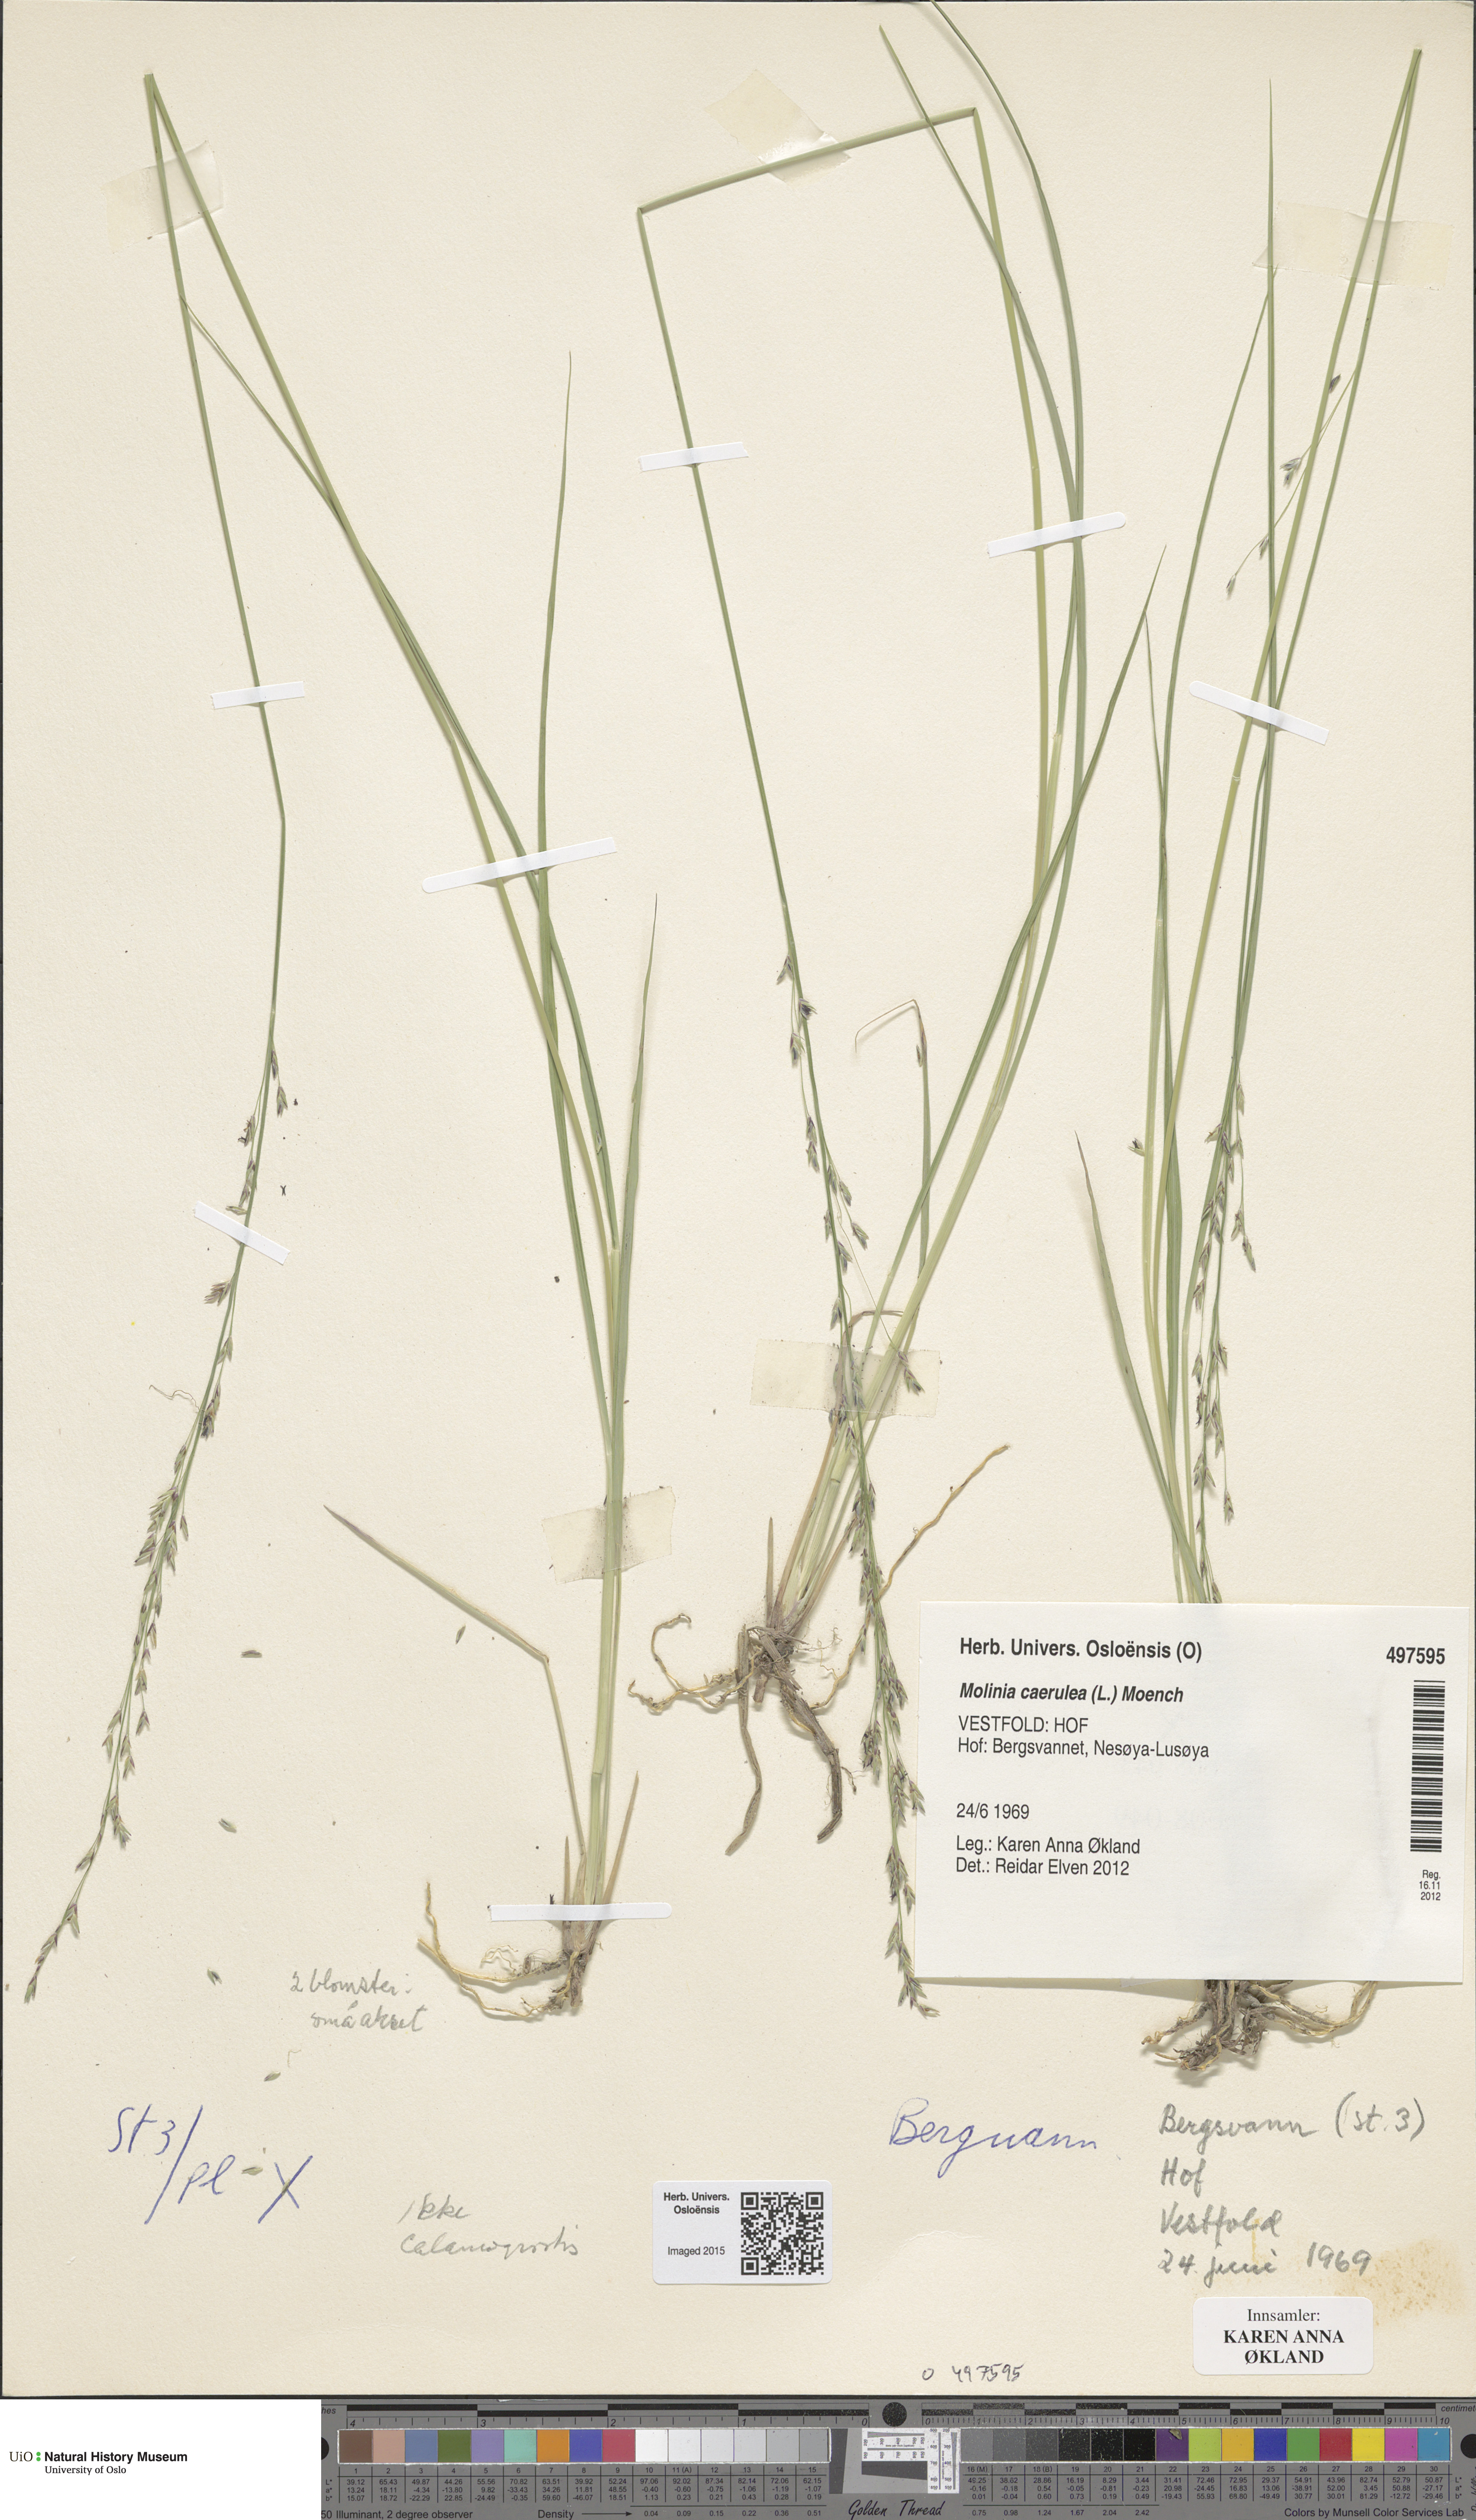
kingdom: Plantae
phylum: Tracheophyta
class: Liliopsida
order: Poales
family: Poaceae
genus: Molinia
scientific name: Molinia caerulea
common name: Purple moor-grass
